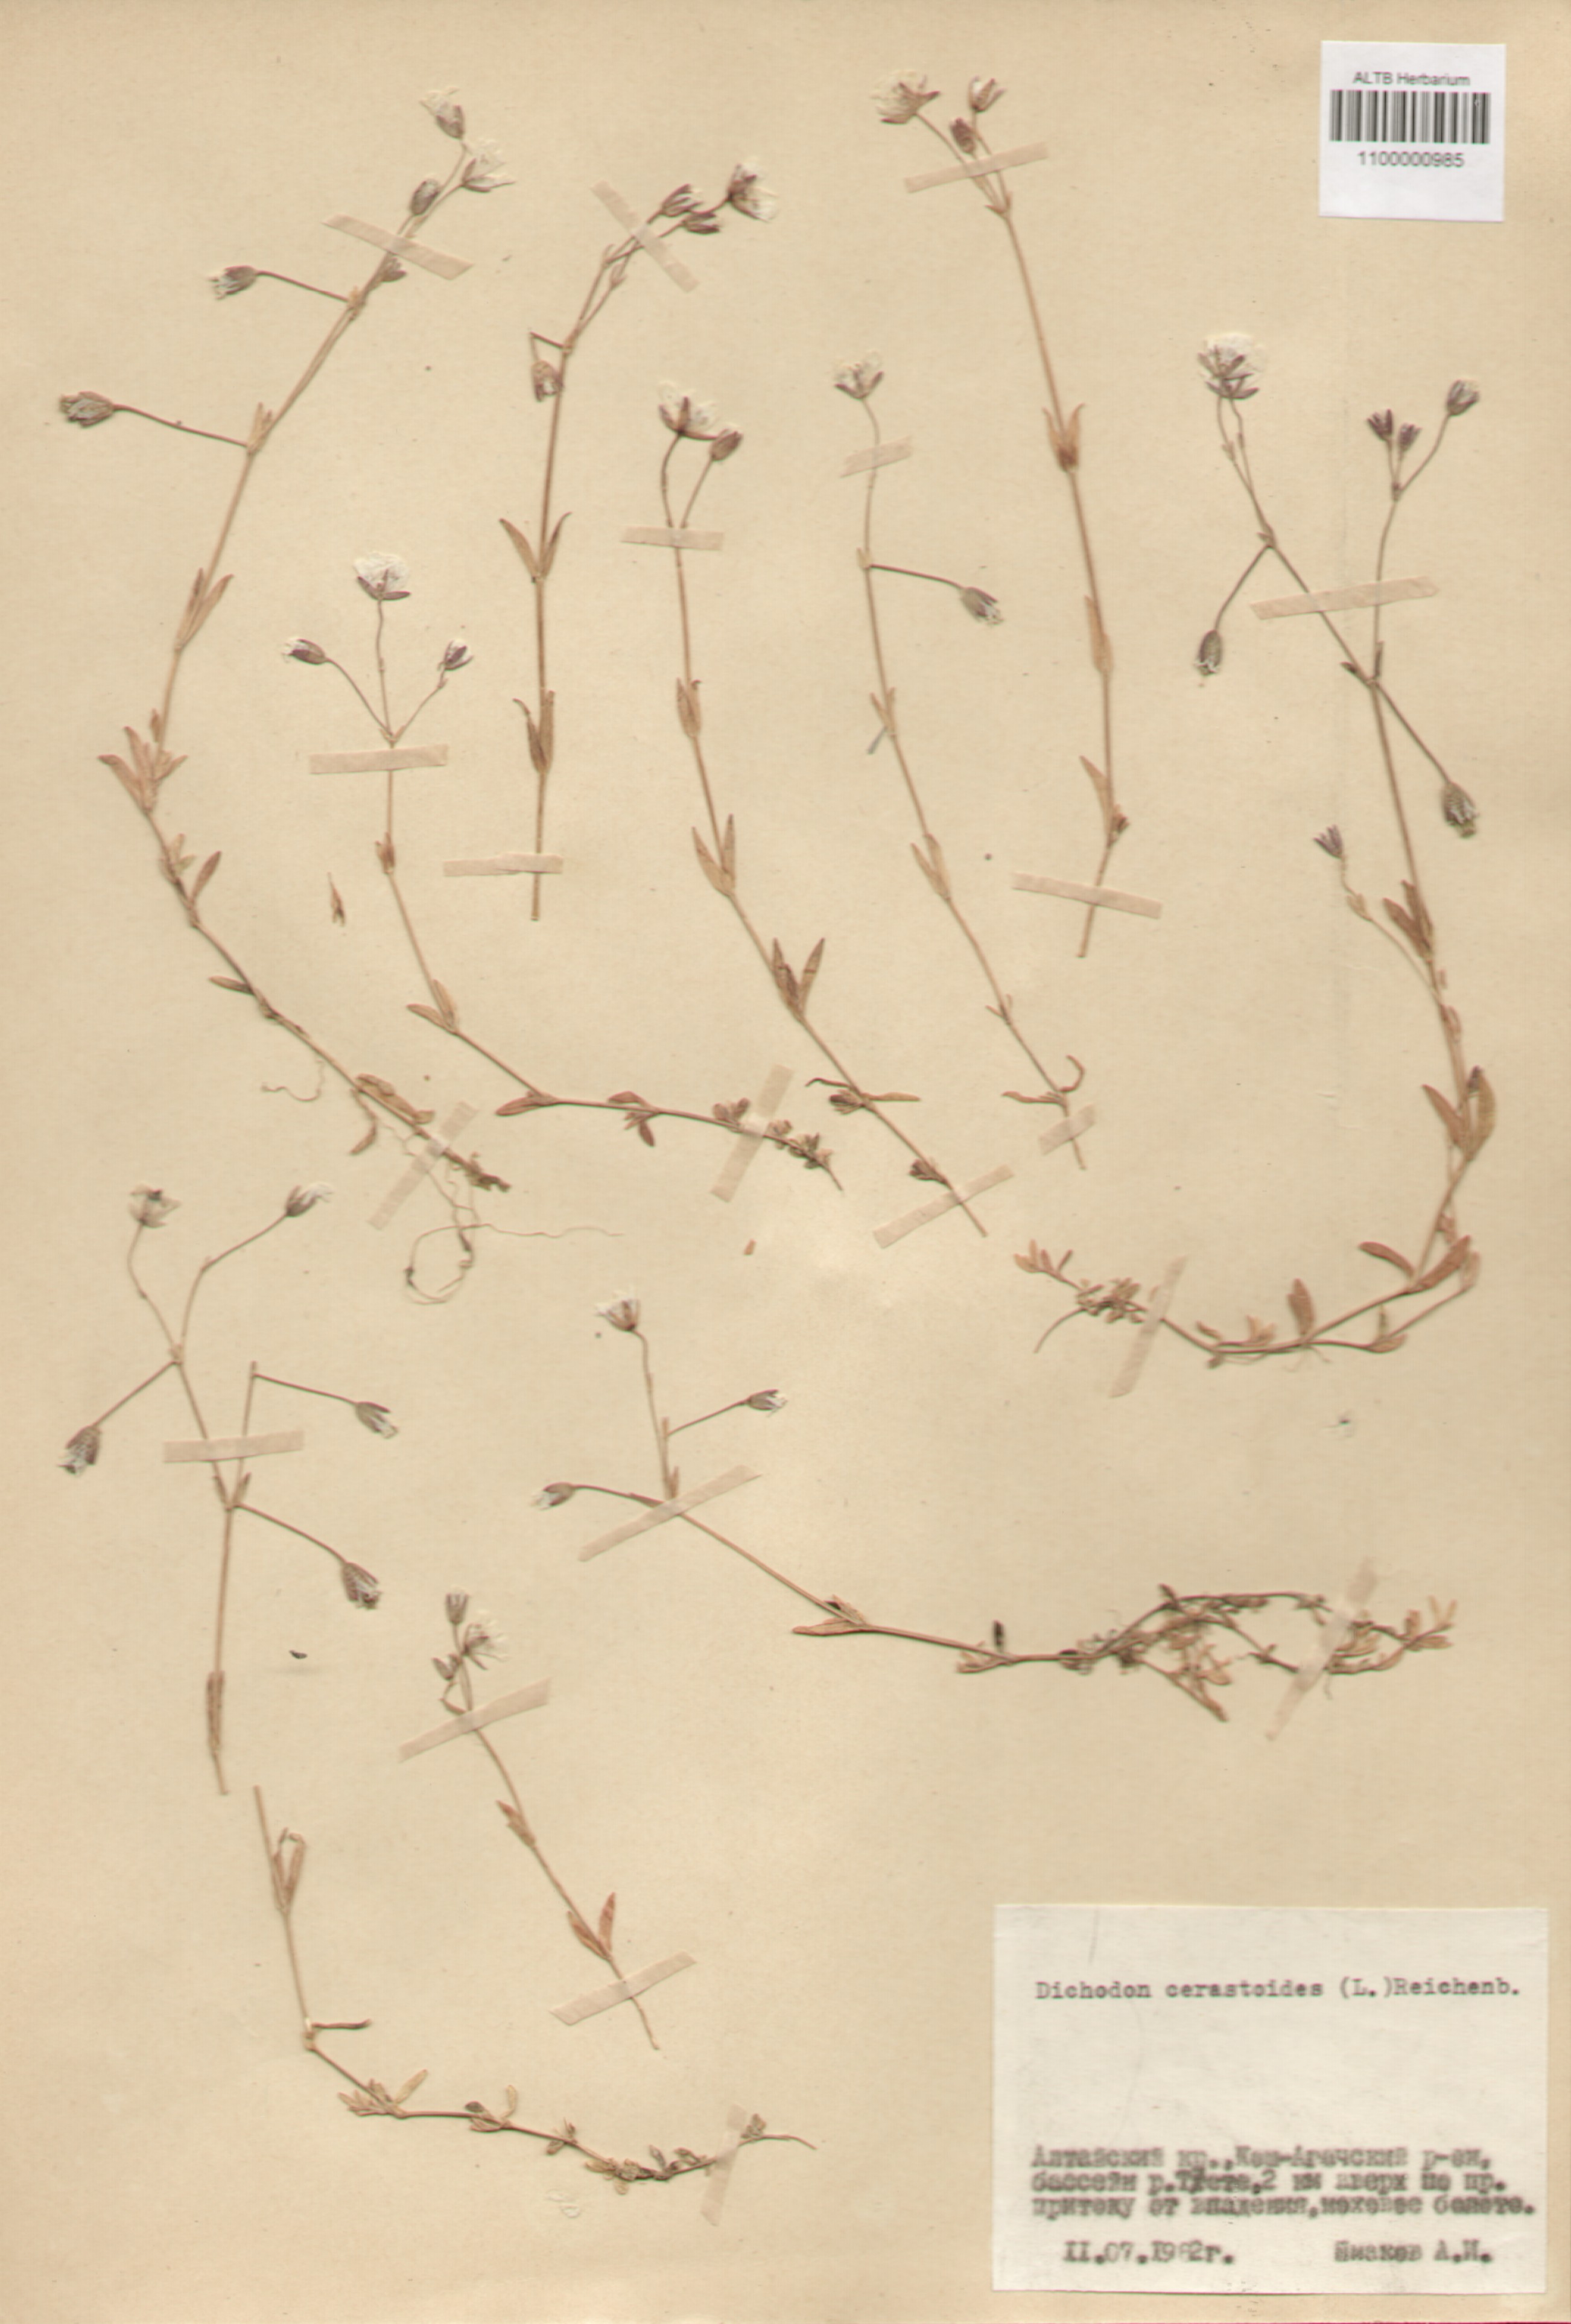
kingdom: Plantae
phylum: Tracheophyta
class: Magnoliopsida
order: Caryophyllales
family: Caryophyllaceae
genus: Dichodon
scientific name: Dichodon cerastoides
